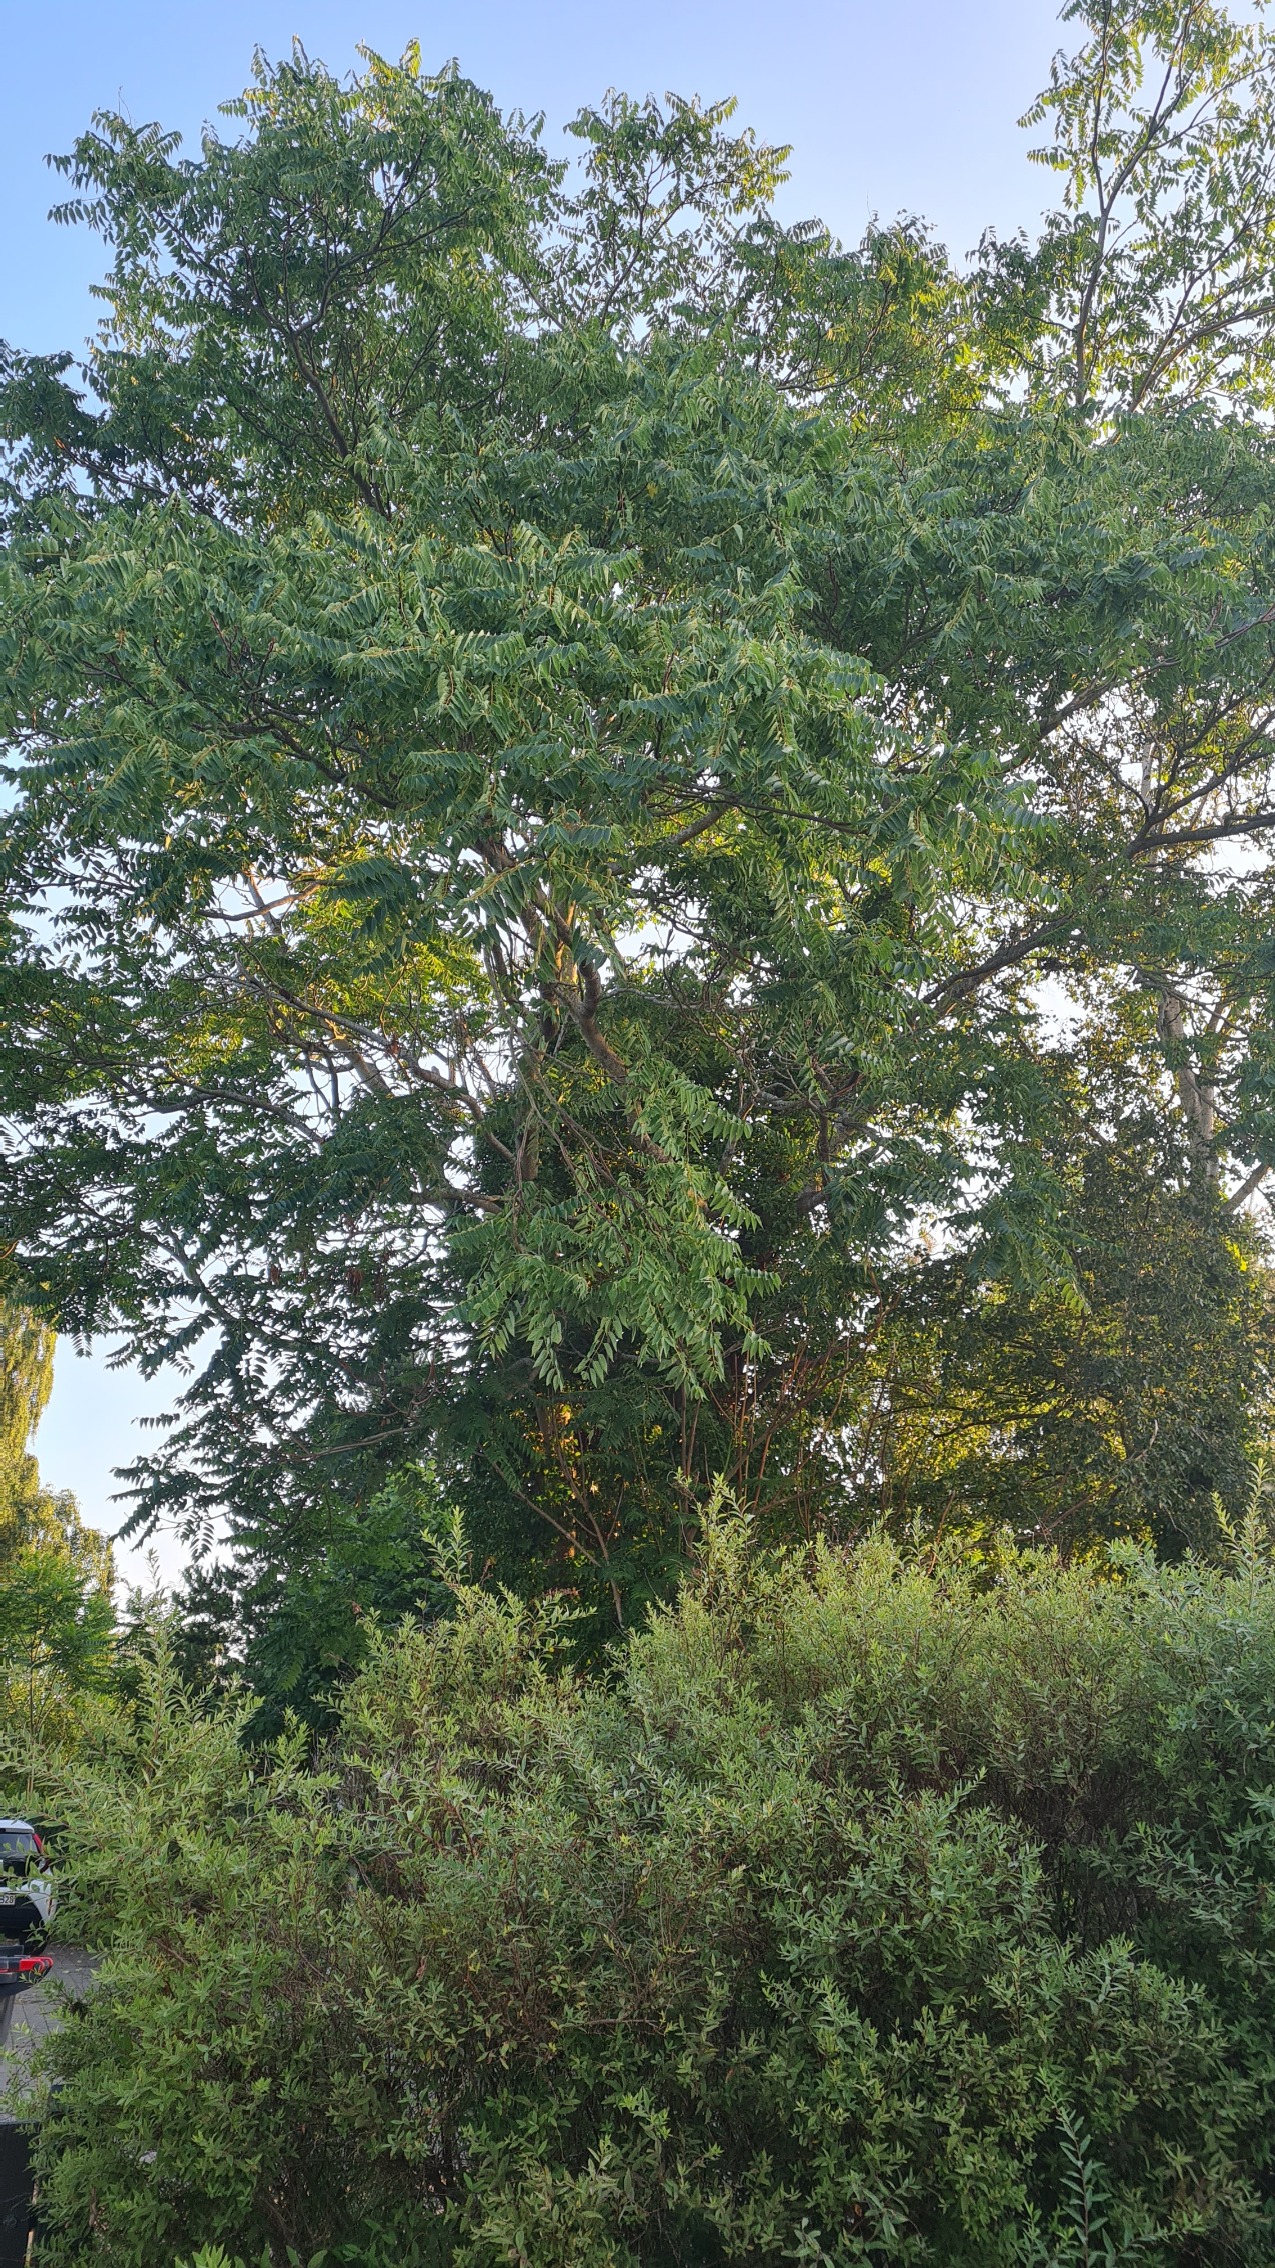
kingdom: Plantae
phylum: Tracheophyta
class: Magnoliopsida
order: Sapindales
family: Simaroubaceae
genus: Ailanthus
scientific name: Ailanthus altissima
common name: Skyrækker
